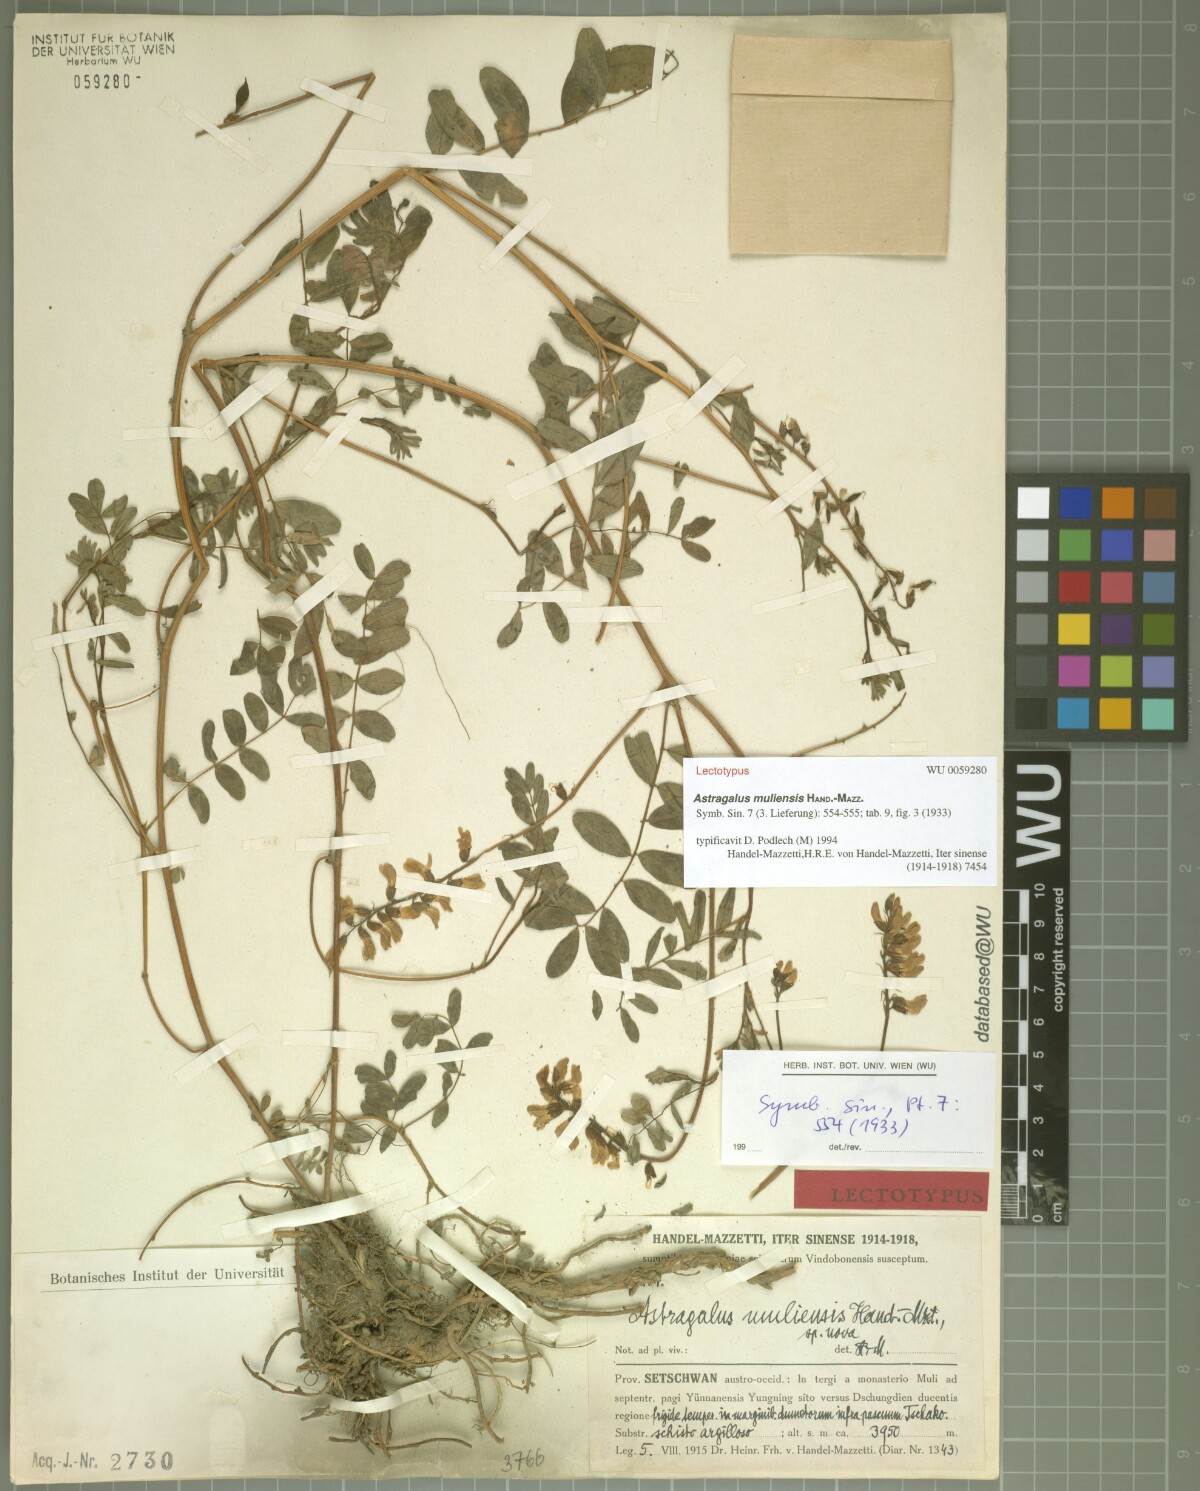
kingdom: Plantae
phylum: Tracheophyta
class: Magnoliopsida
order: Fabales
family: Fabaceae
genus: Astragalus
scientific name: Astragalus muliensis
